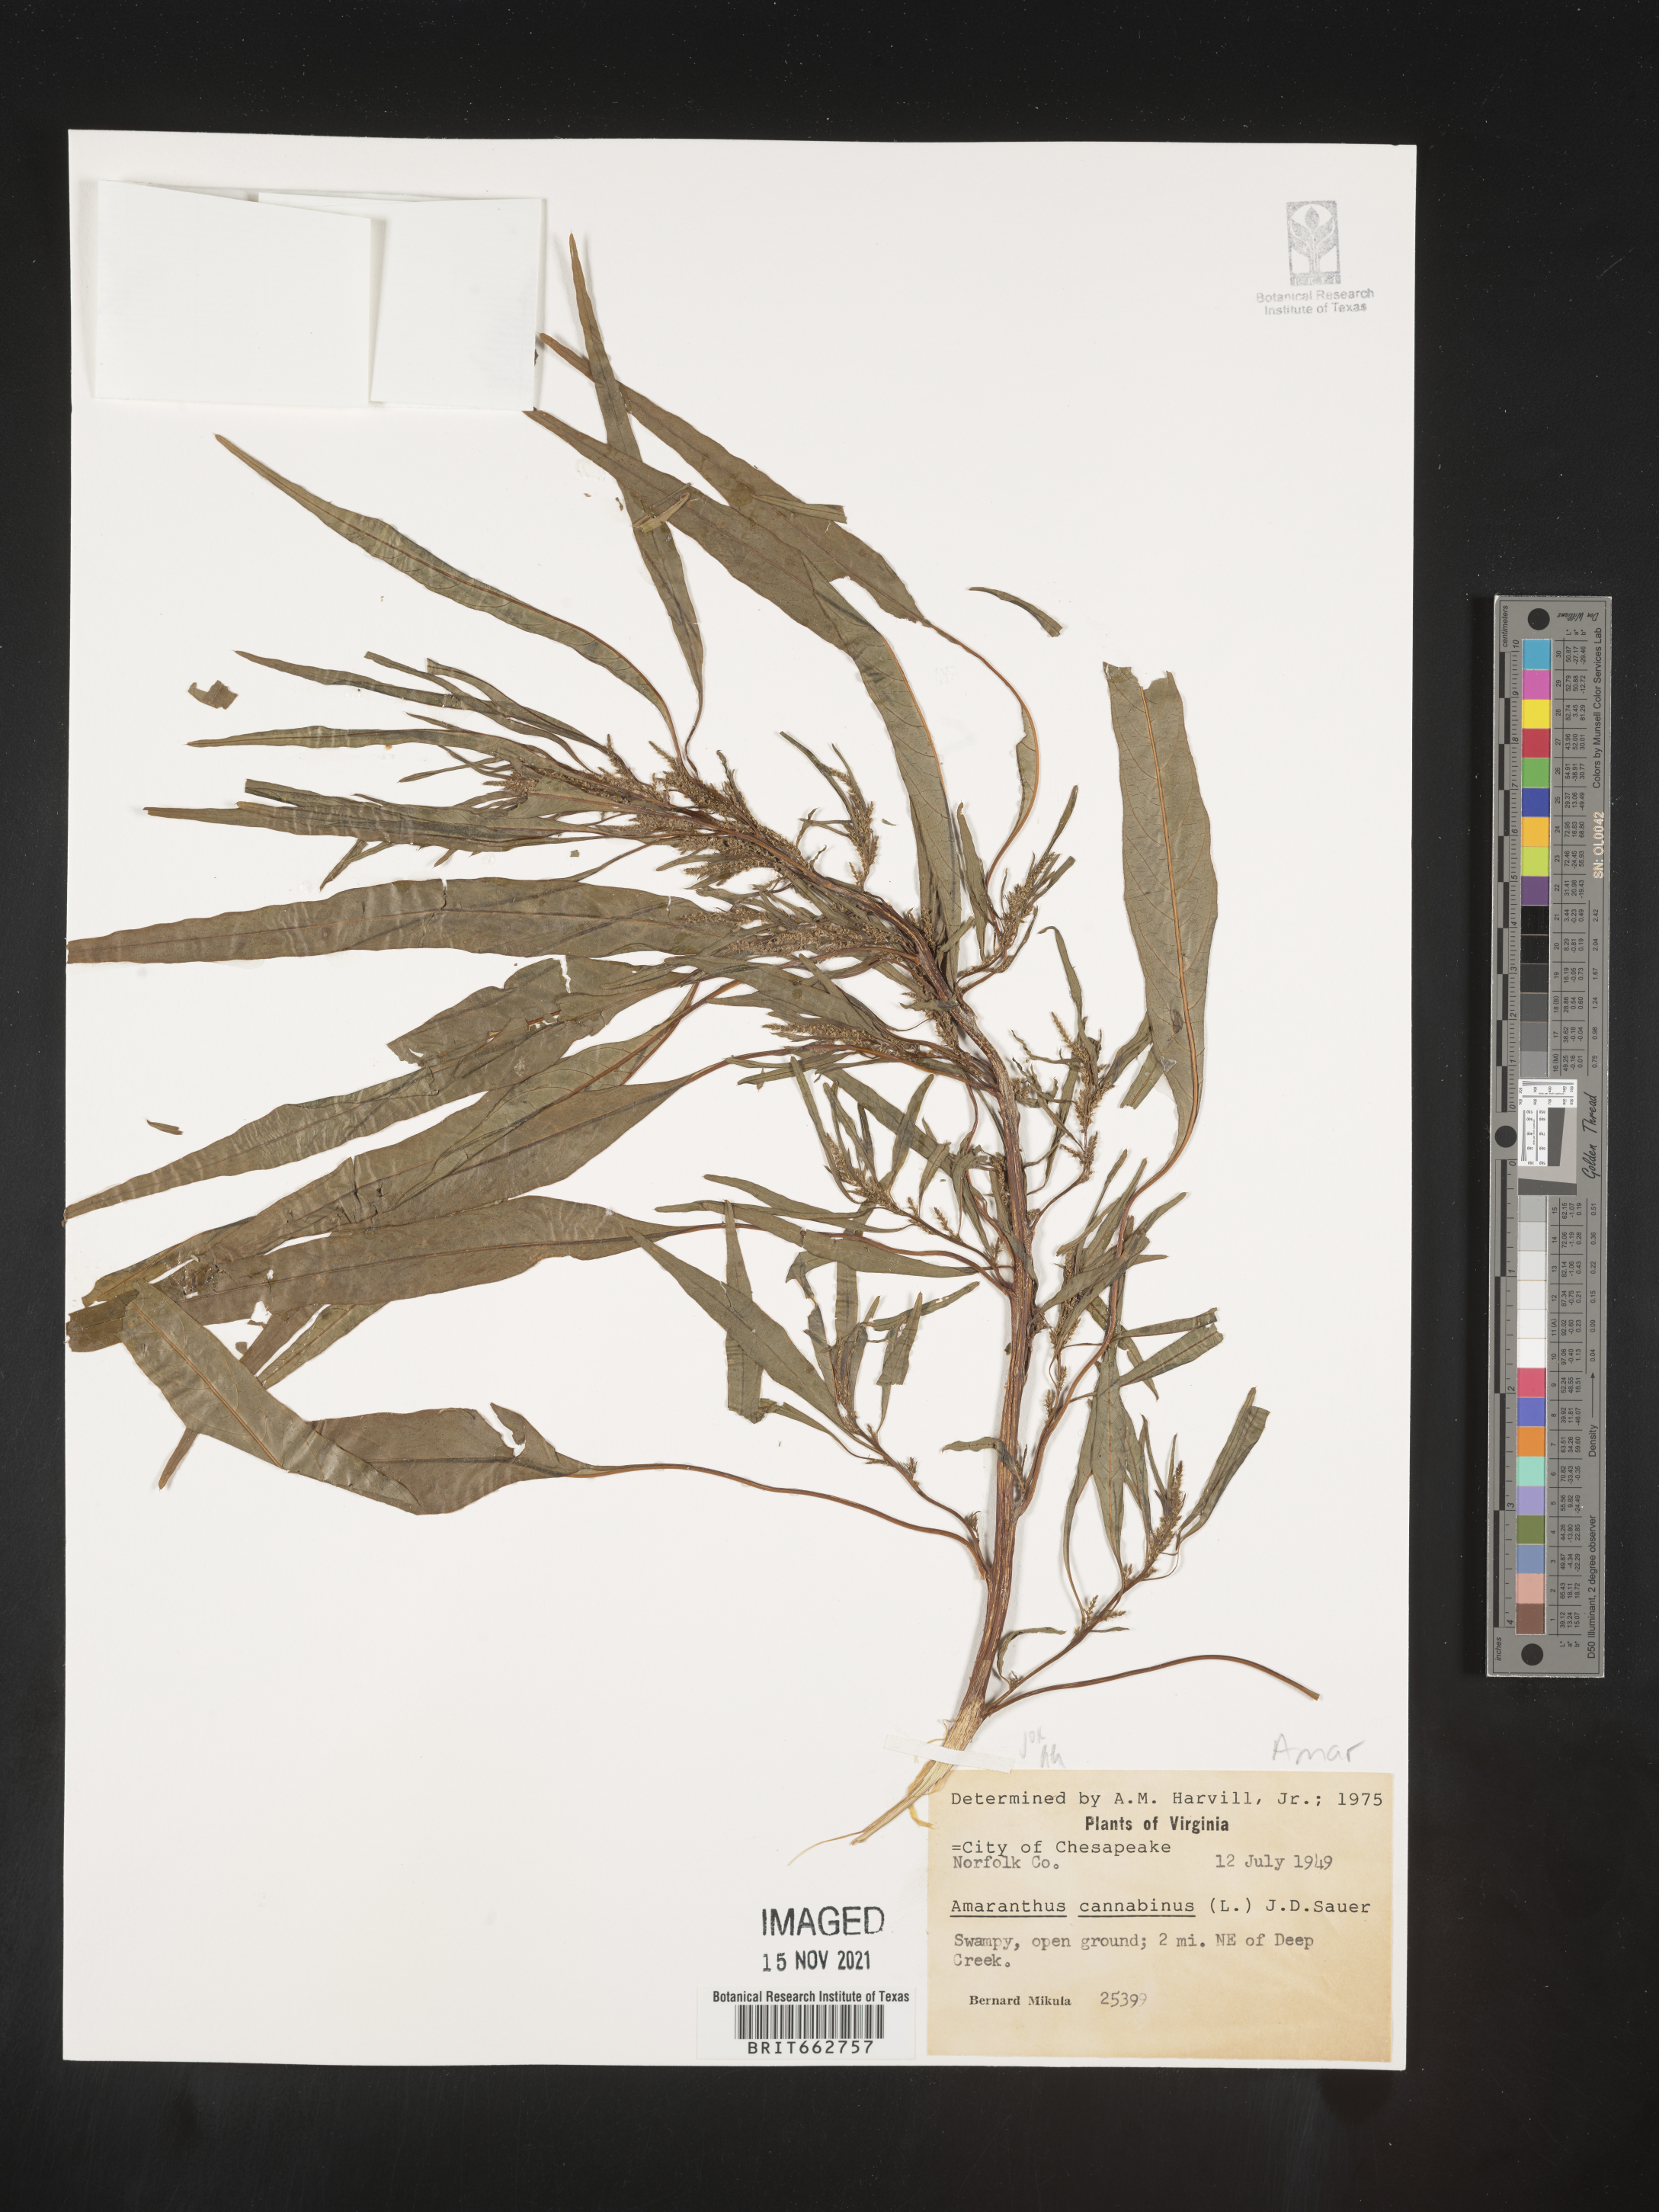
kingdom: Plantae
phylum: Tracheophyta
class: Magnoliopsida
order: Caryophyllales
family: Amaranthaceae
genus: Amaranthus
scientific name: Amaranthus cannabinus
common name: Salt-marsh water-hemp
